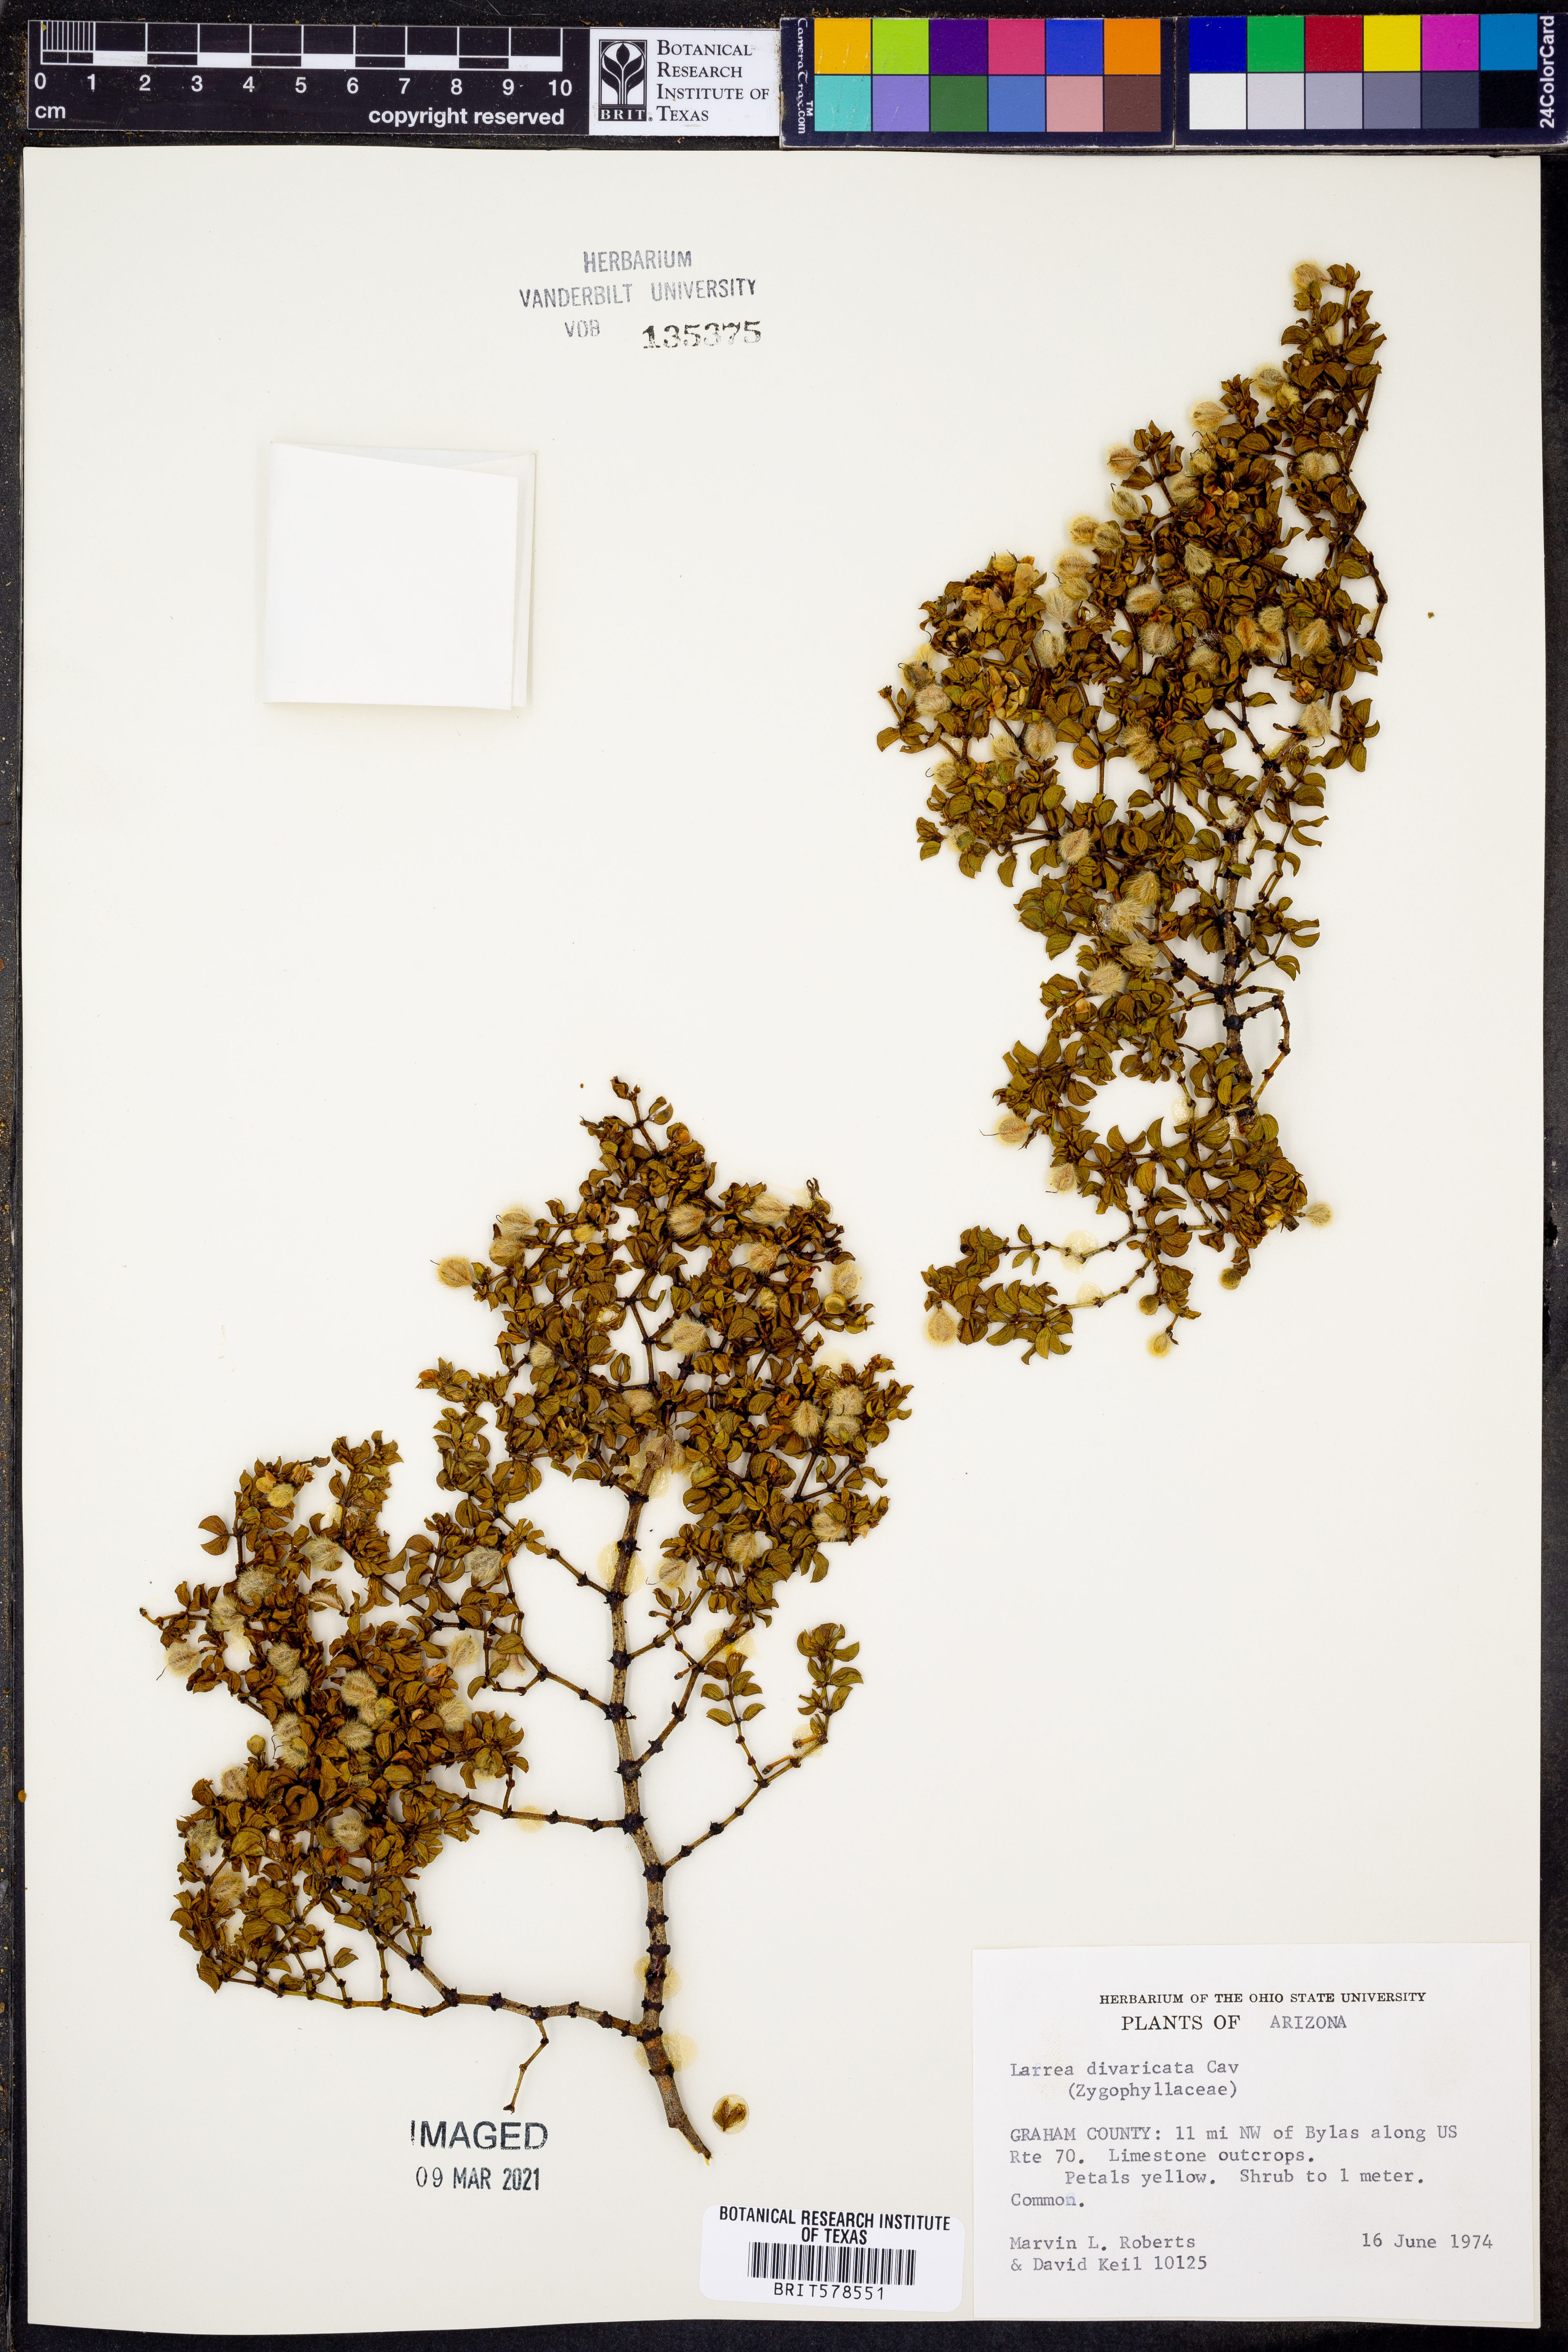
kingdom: Plantae
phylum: Tracheophyta
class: Magnoliopsida
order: Zygophyllales
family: Zygophyllaceae
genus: Larrea
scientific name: Larrea divaricata
